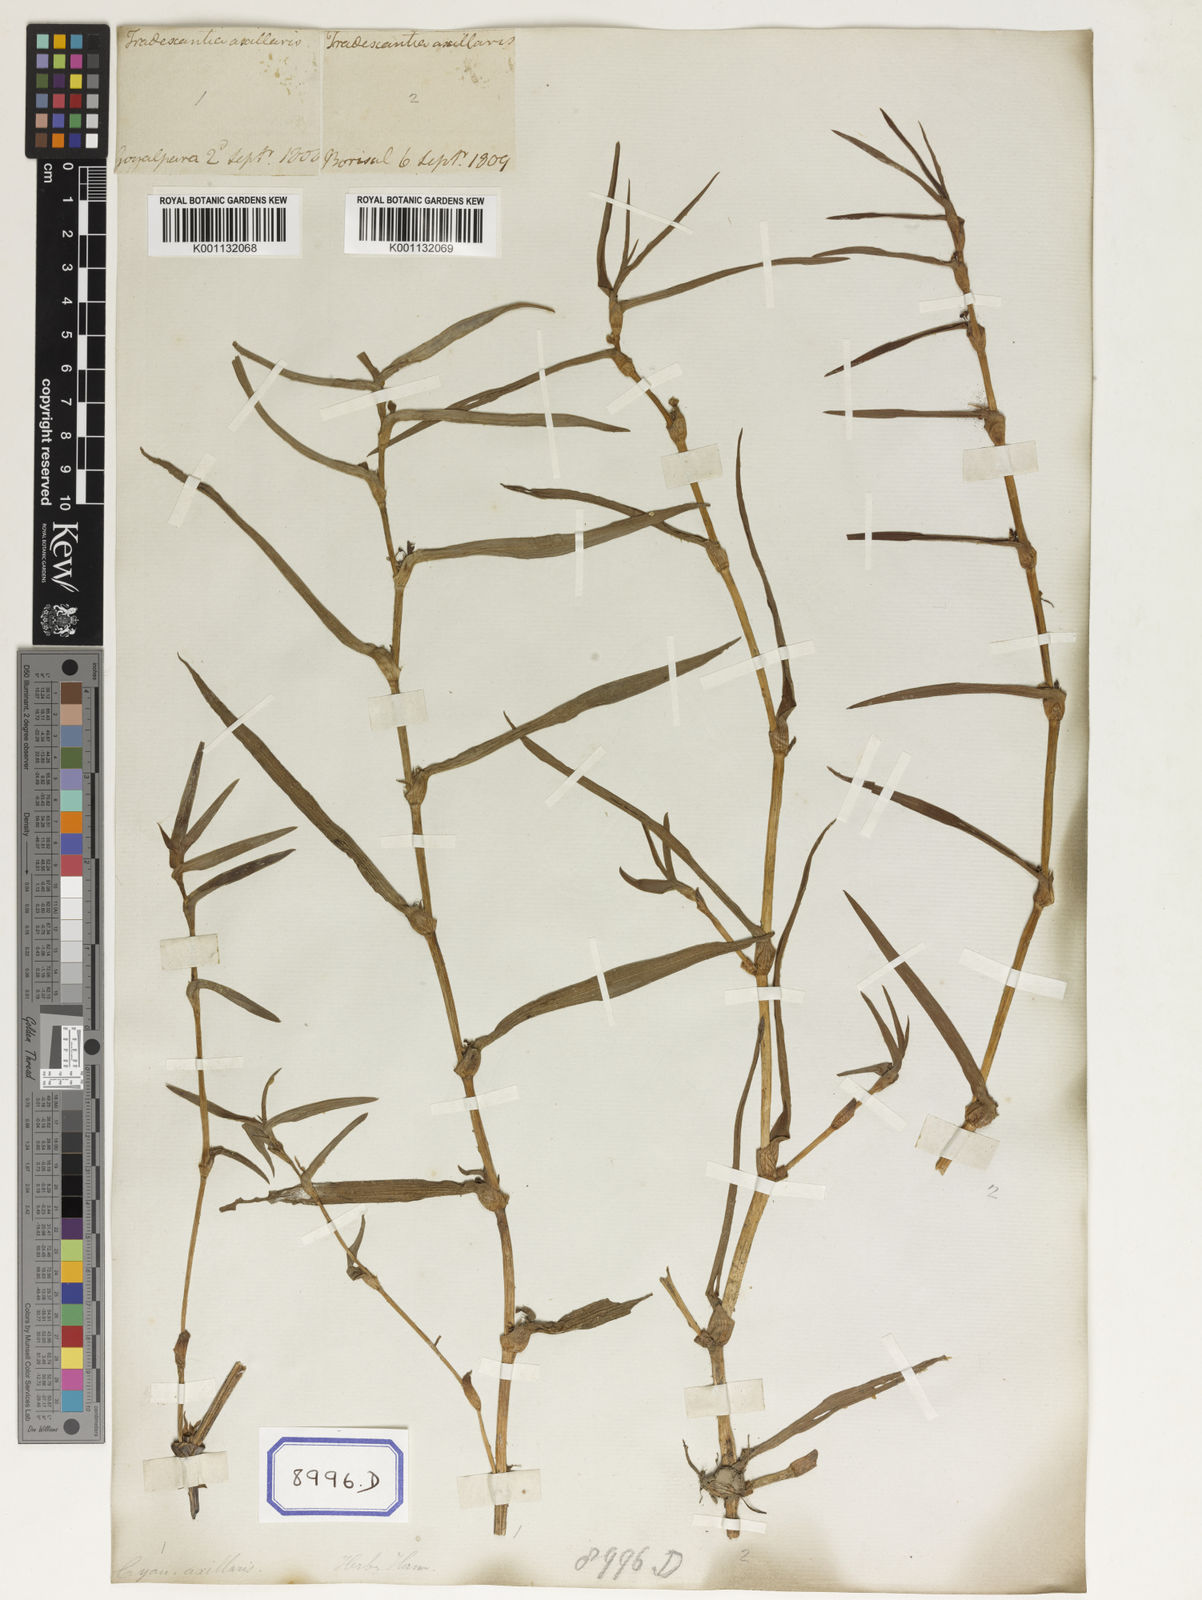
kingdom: Plantae
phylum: Tracheophyta
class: Liliopsida
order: Commelinales
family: Commelinaceae
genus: Cyanotis
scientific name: Cyanotis
